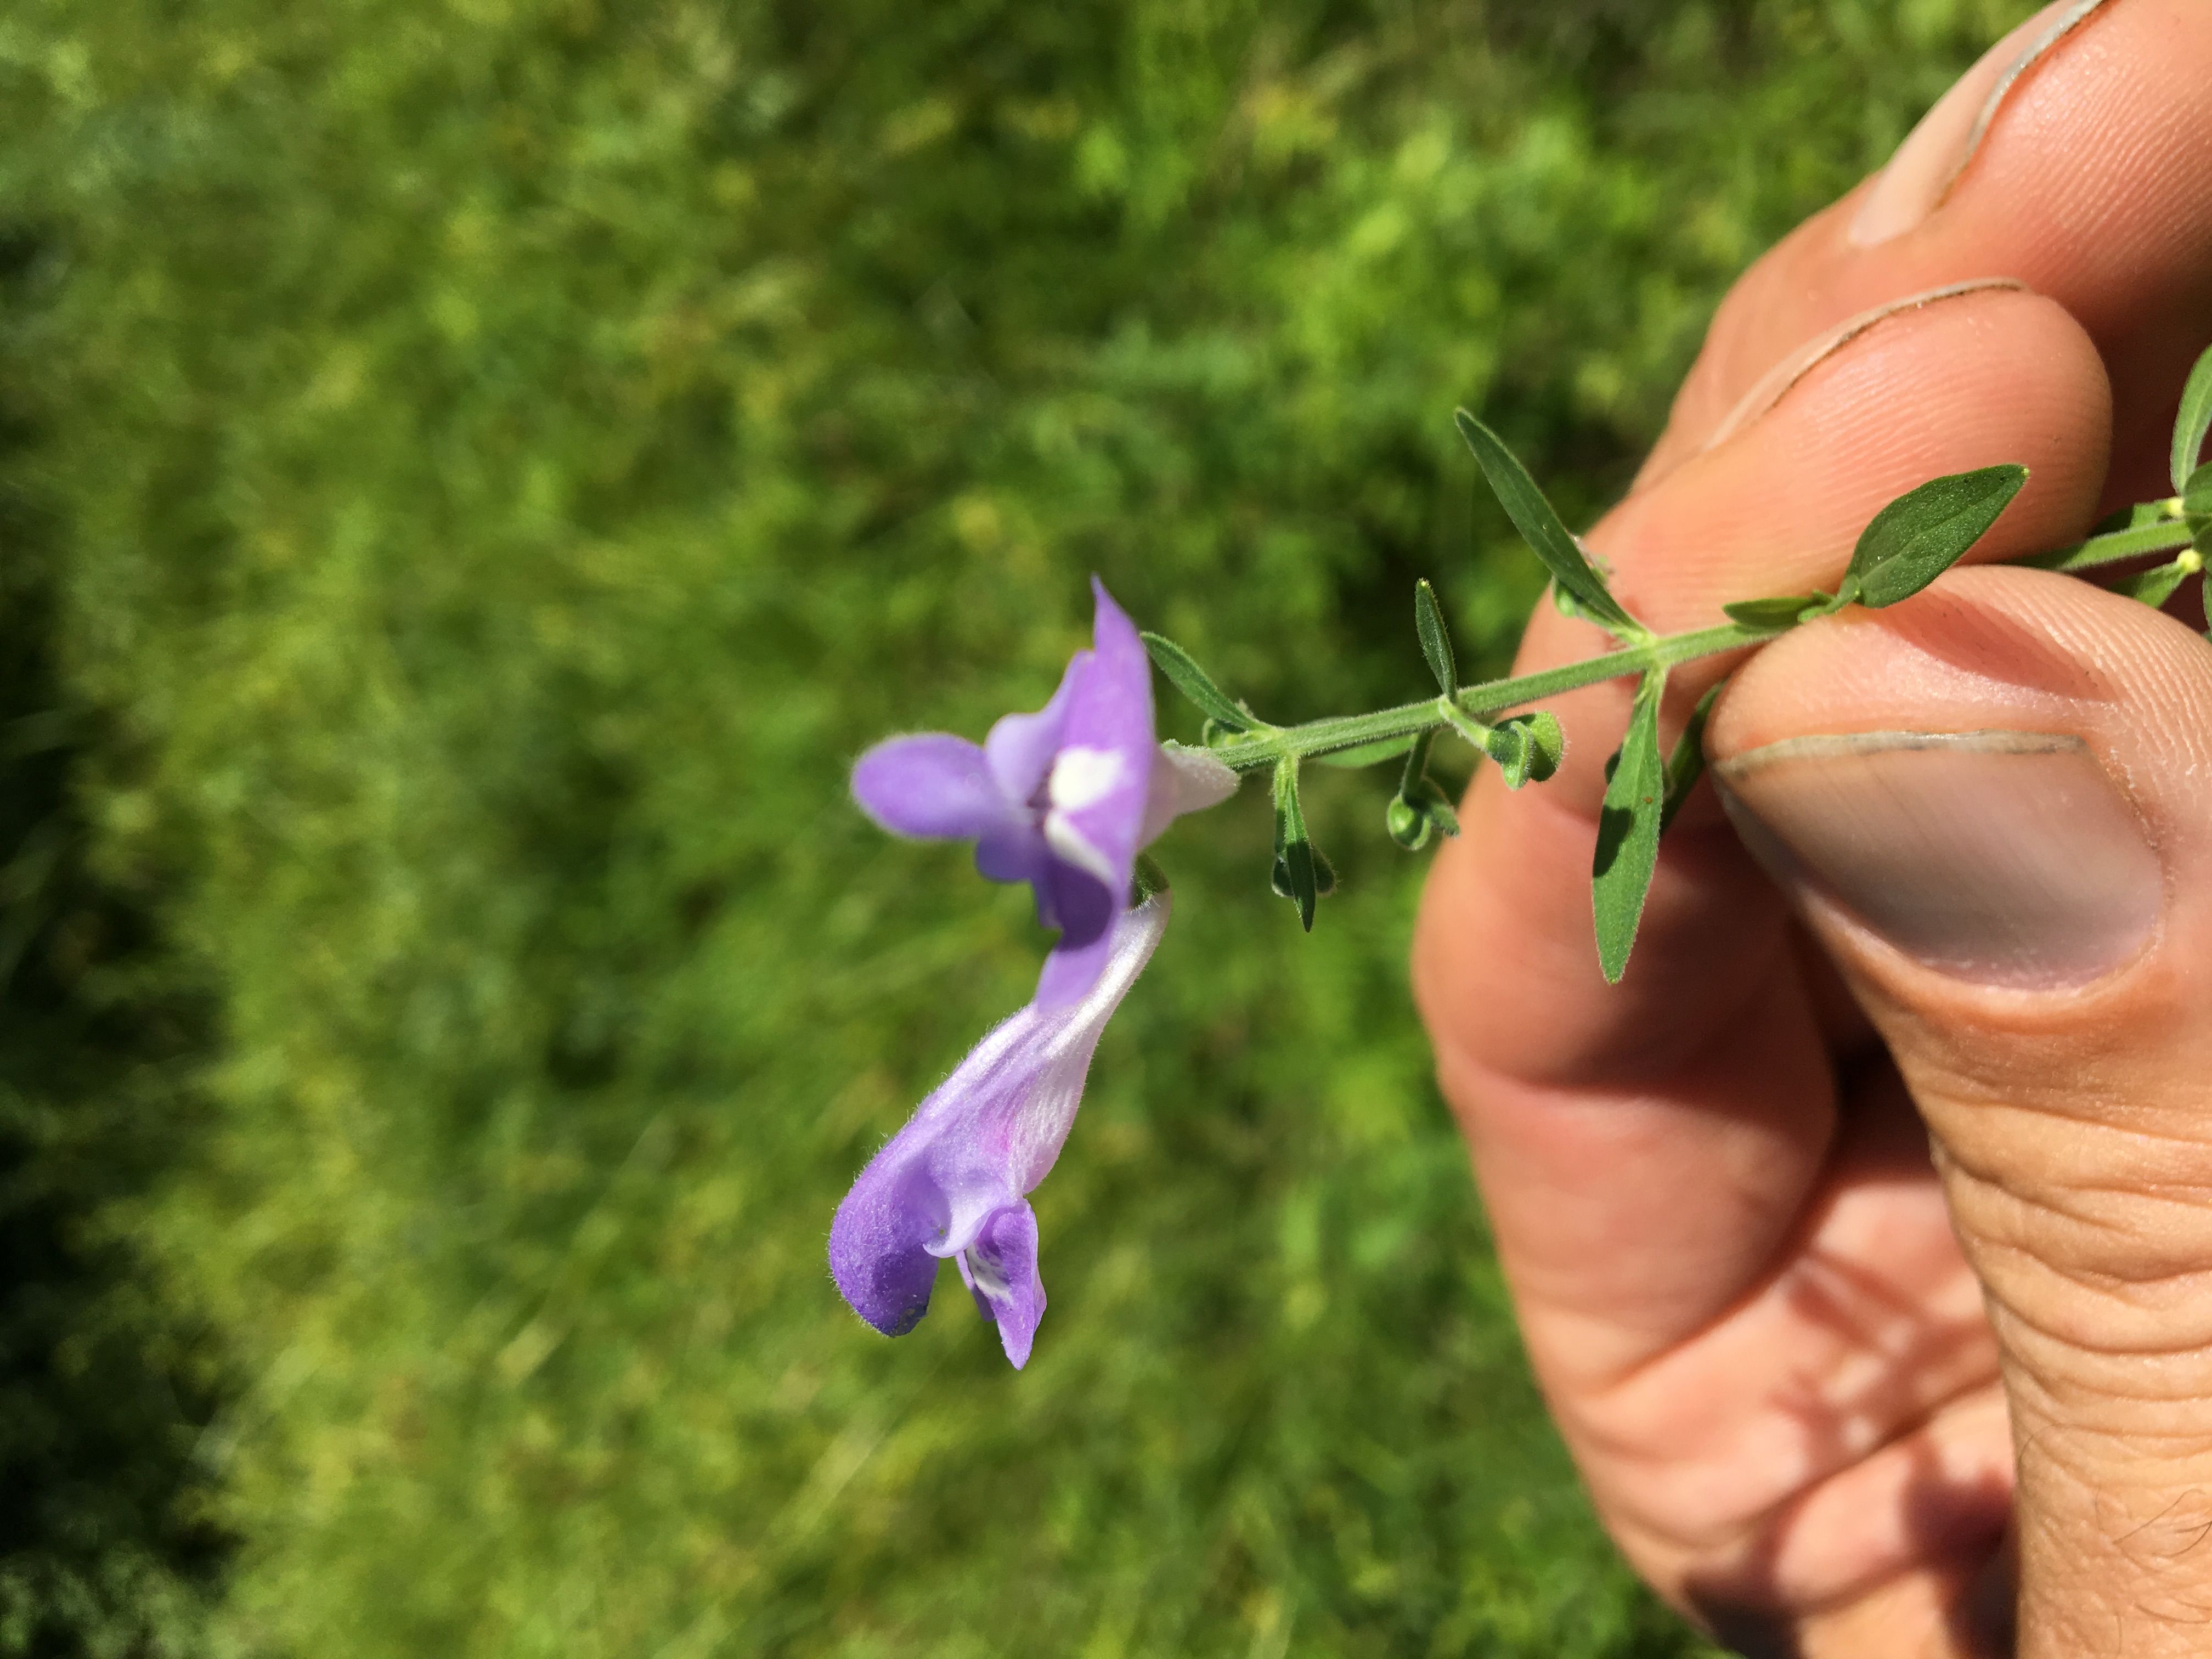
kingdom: Plantae
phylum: Tracheophyta
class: Magnoliopsida
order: Lamiales
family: Lamiaceae
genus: Scutellaria
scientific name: Scutellaria integrifolia
